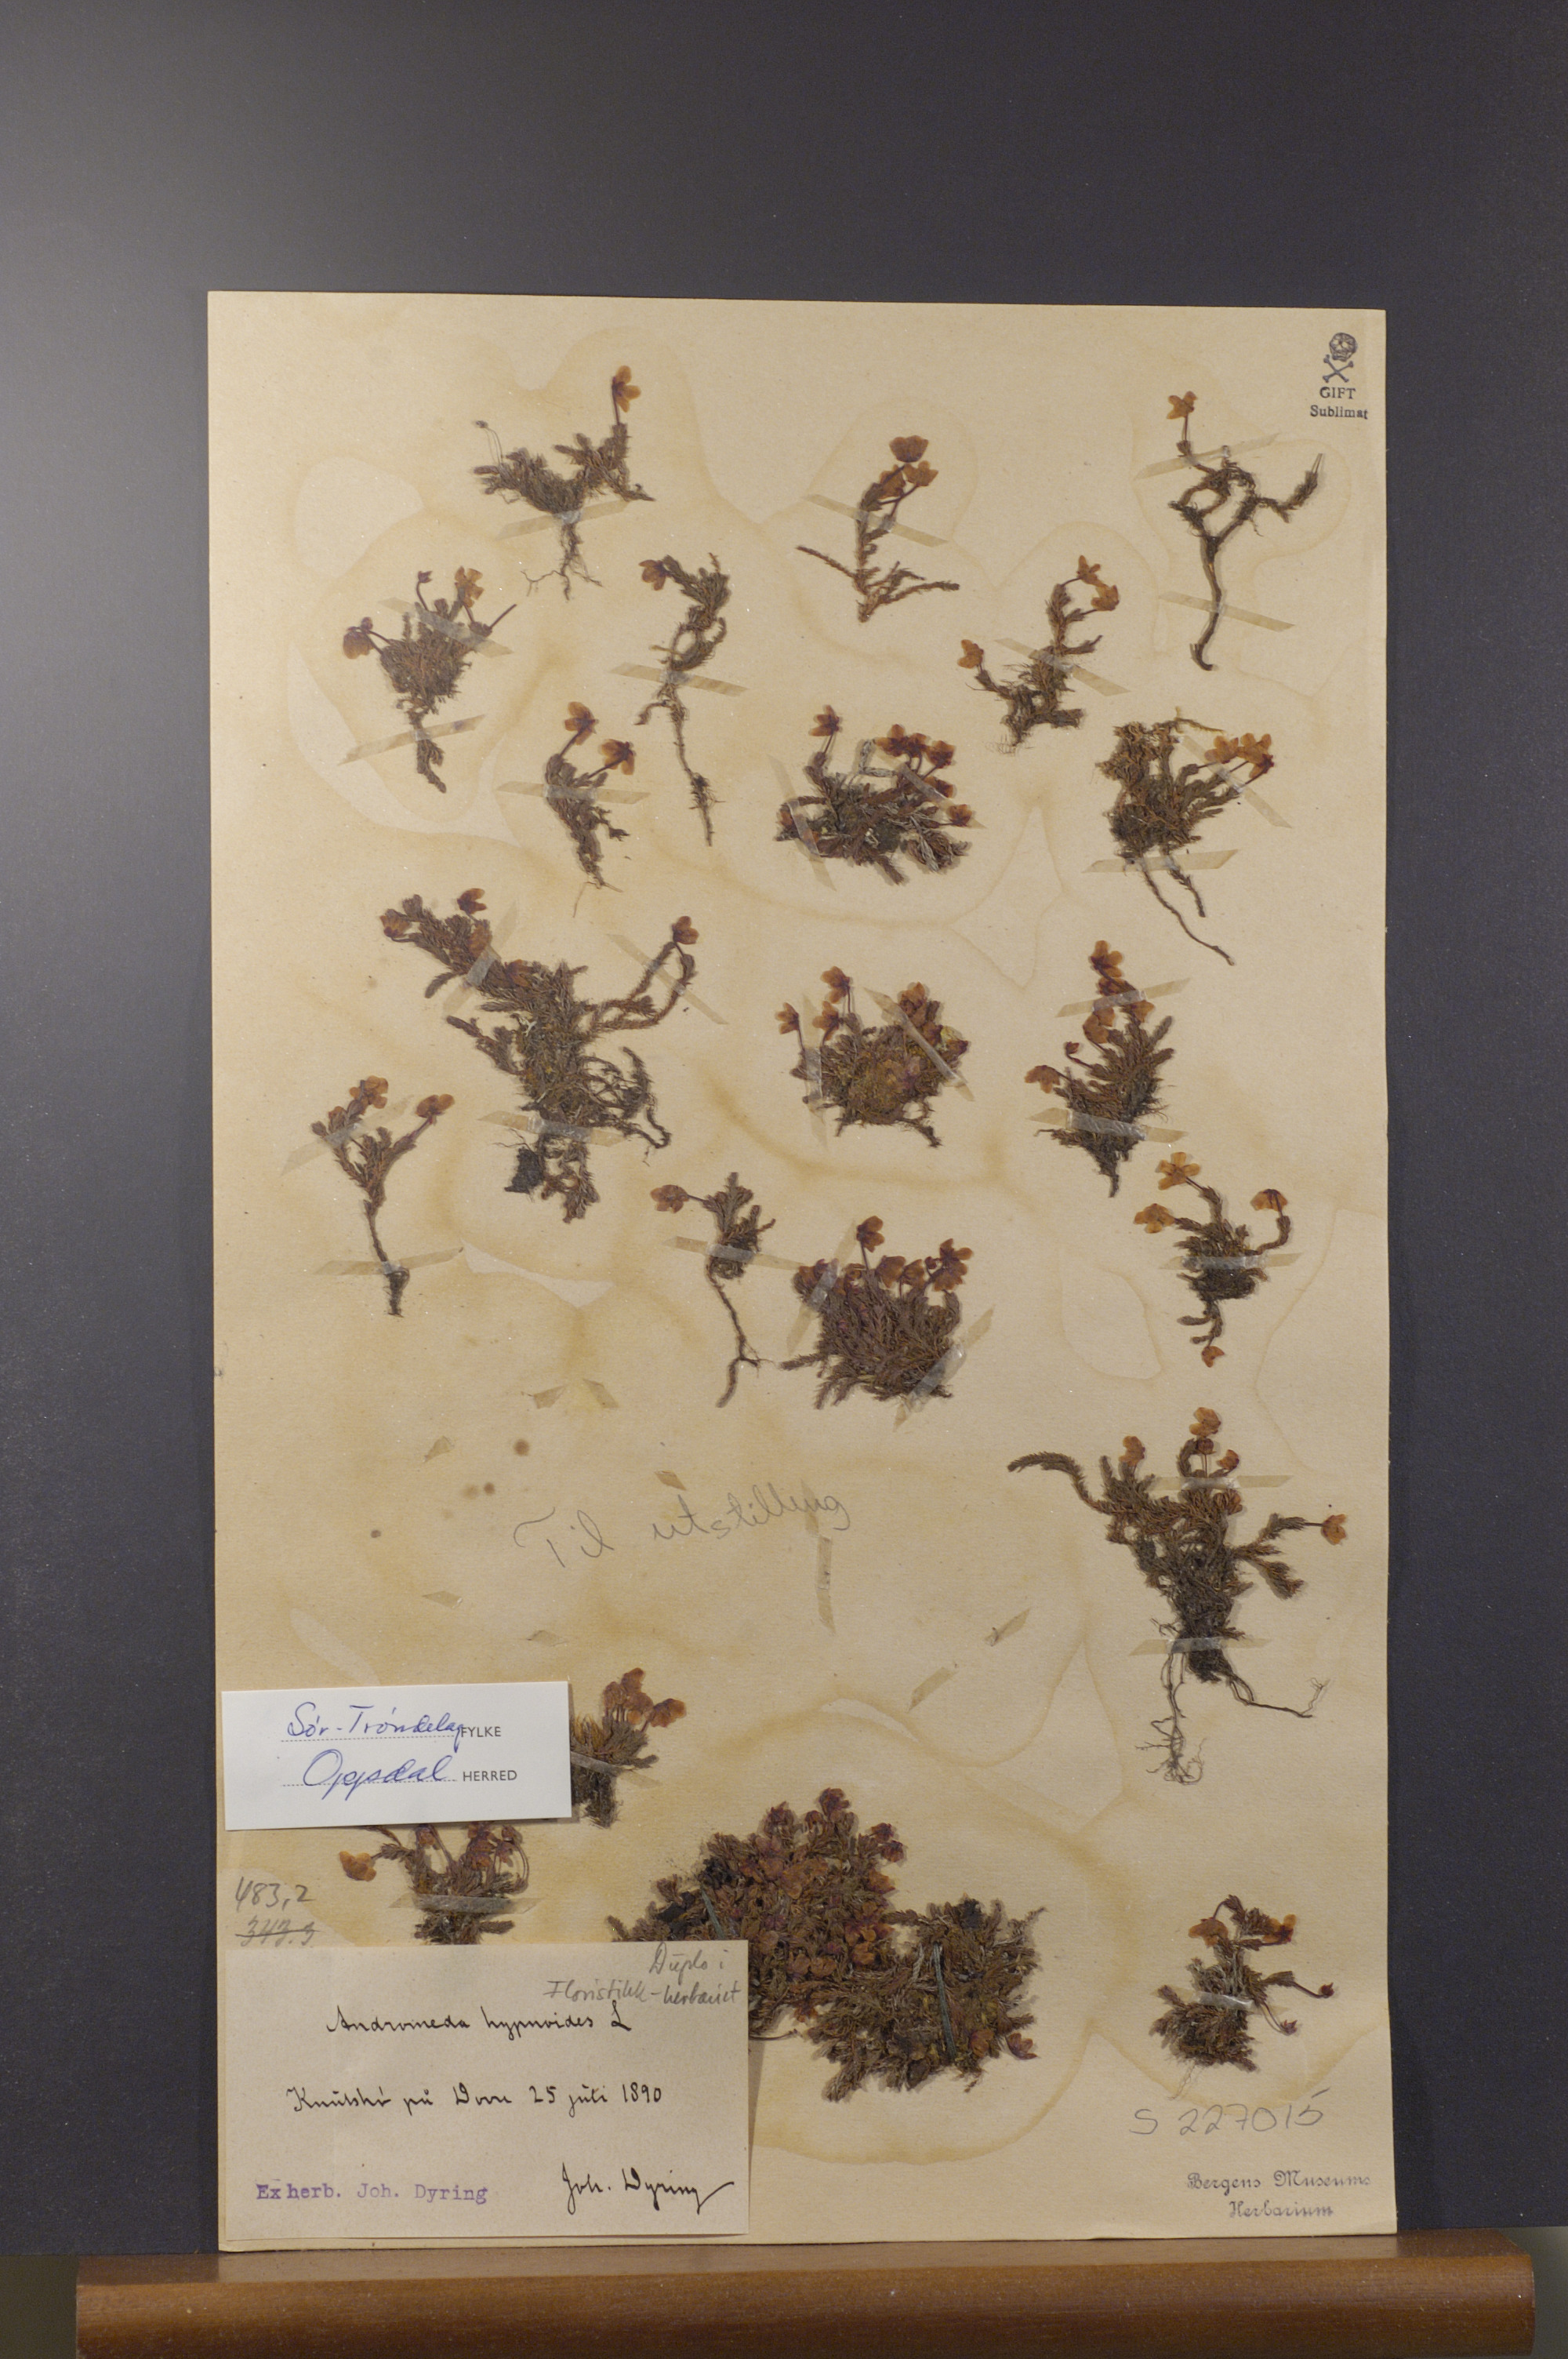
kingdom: Plantae
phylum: Tracheophyta
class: Magnoliopsida
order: Ericales
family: Ericaceae
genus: Harrimanella
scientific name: Harrimanella hypnoides
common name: Moss bell heather
